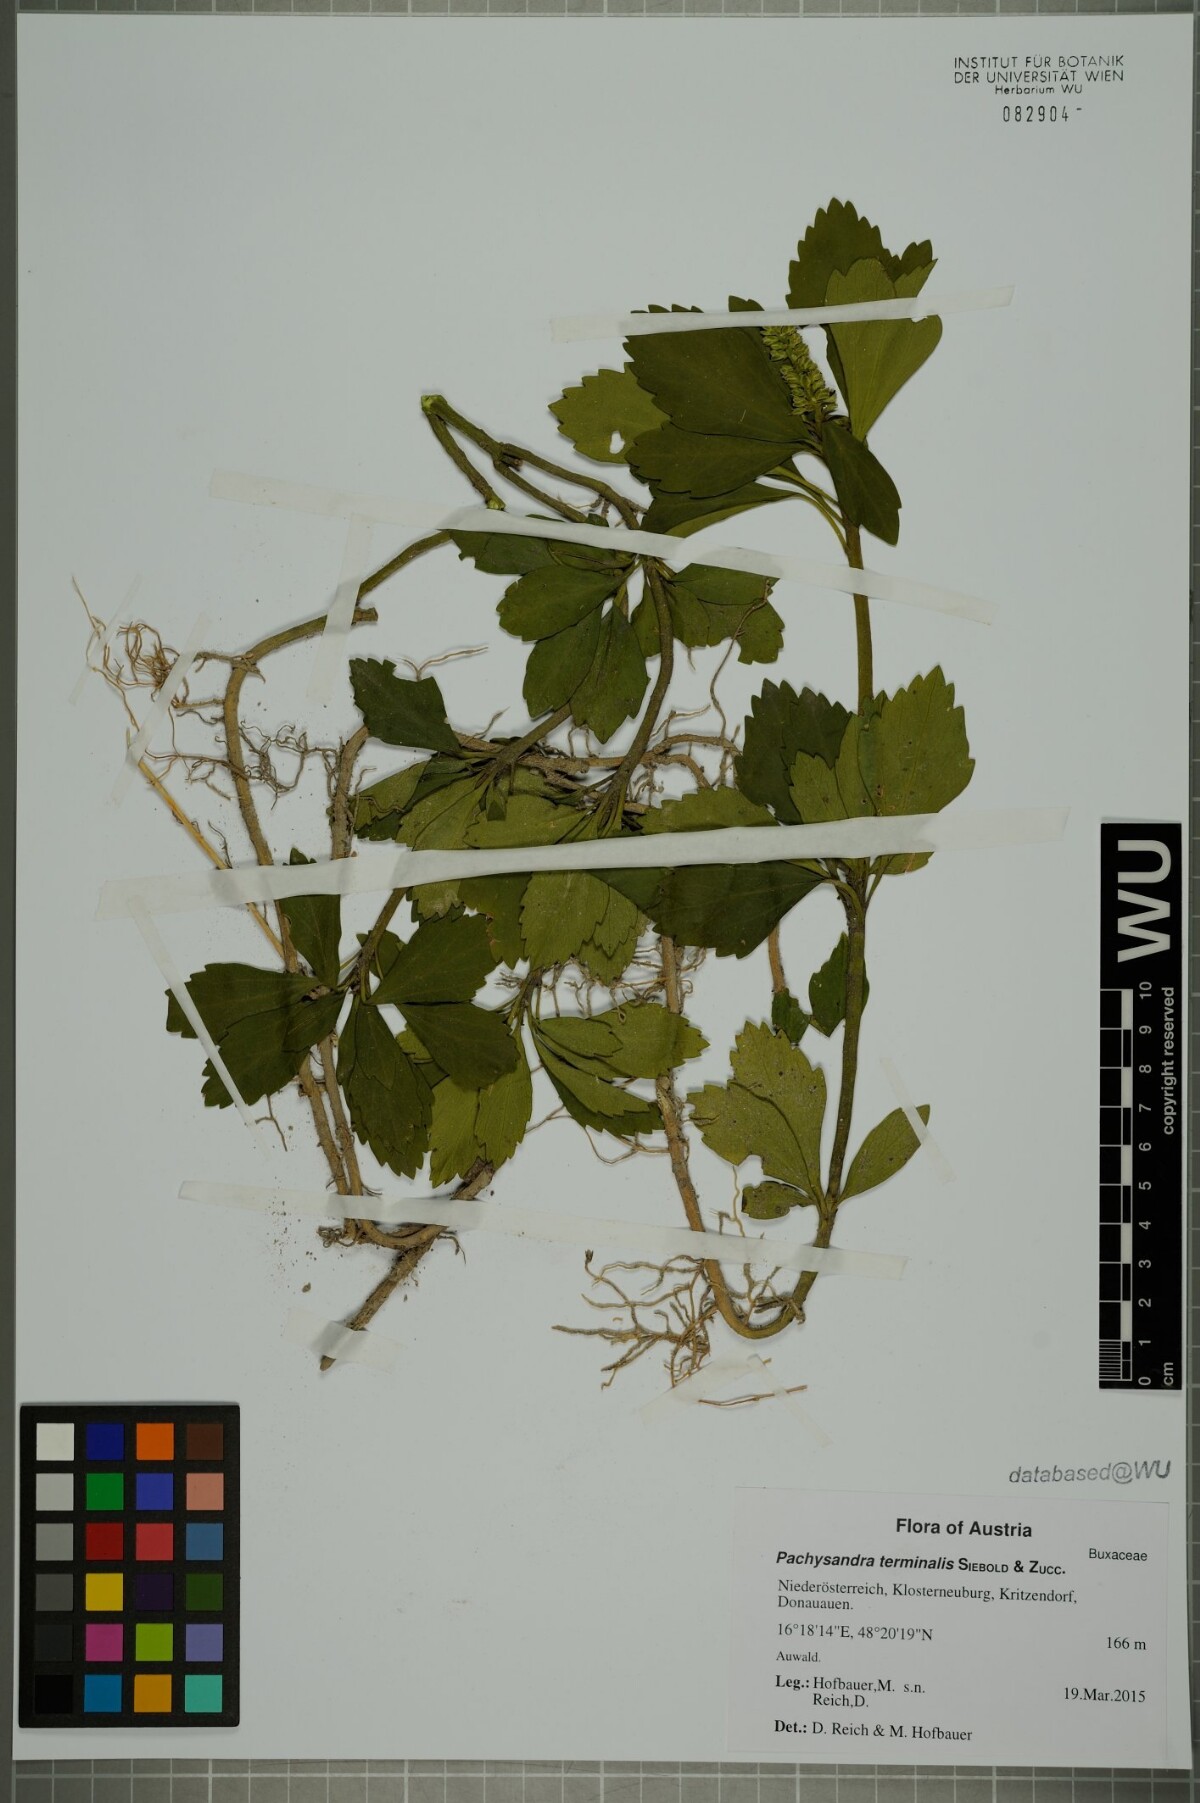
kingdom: Plantae
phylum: Tracheophyta
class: Magnoliopsida
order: Buxales
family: Buxaceae
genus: Pachysandra
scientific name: Pachysandra terminalis
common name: Japanese pachysandra
